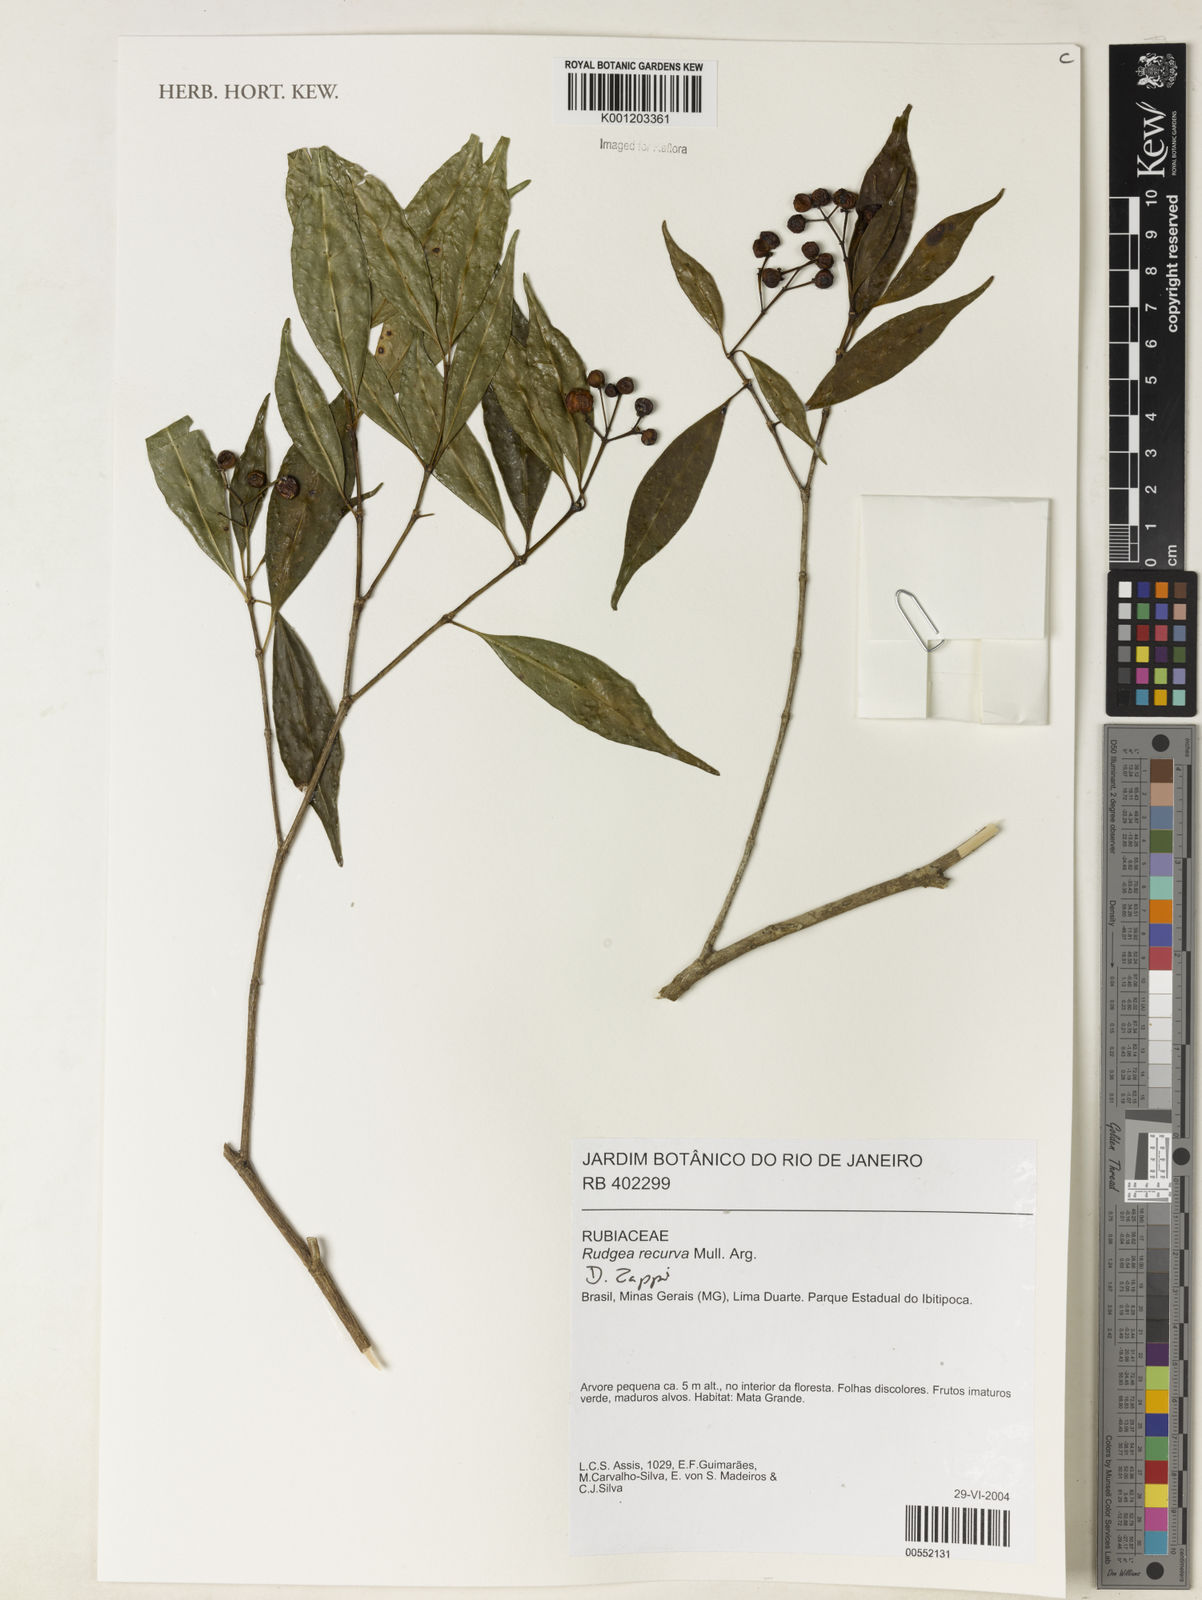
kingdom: Plantae
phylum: Tracheophyta
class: Magnoliopsida
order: Gentianales
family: Rubiaceae
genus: Rudgea
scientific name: Rudgea
